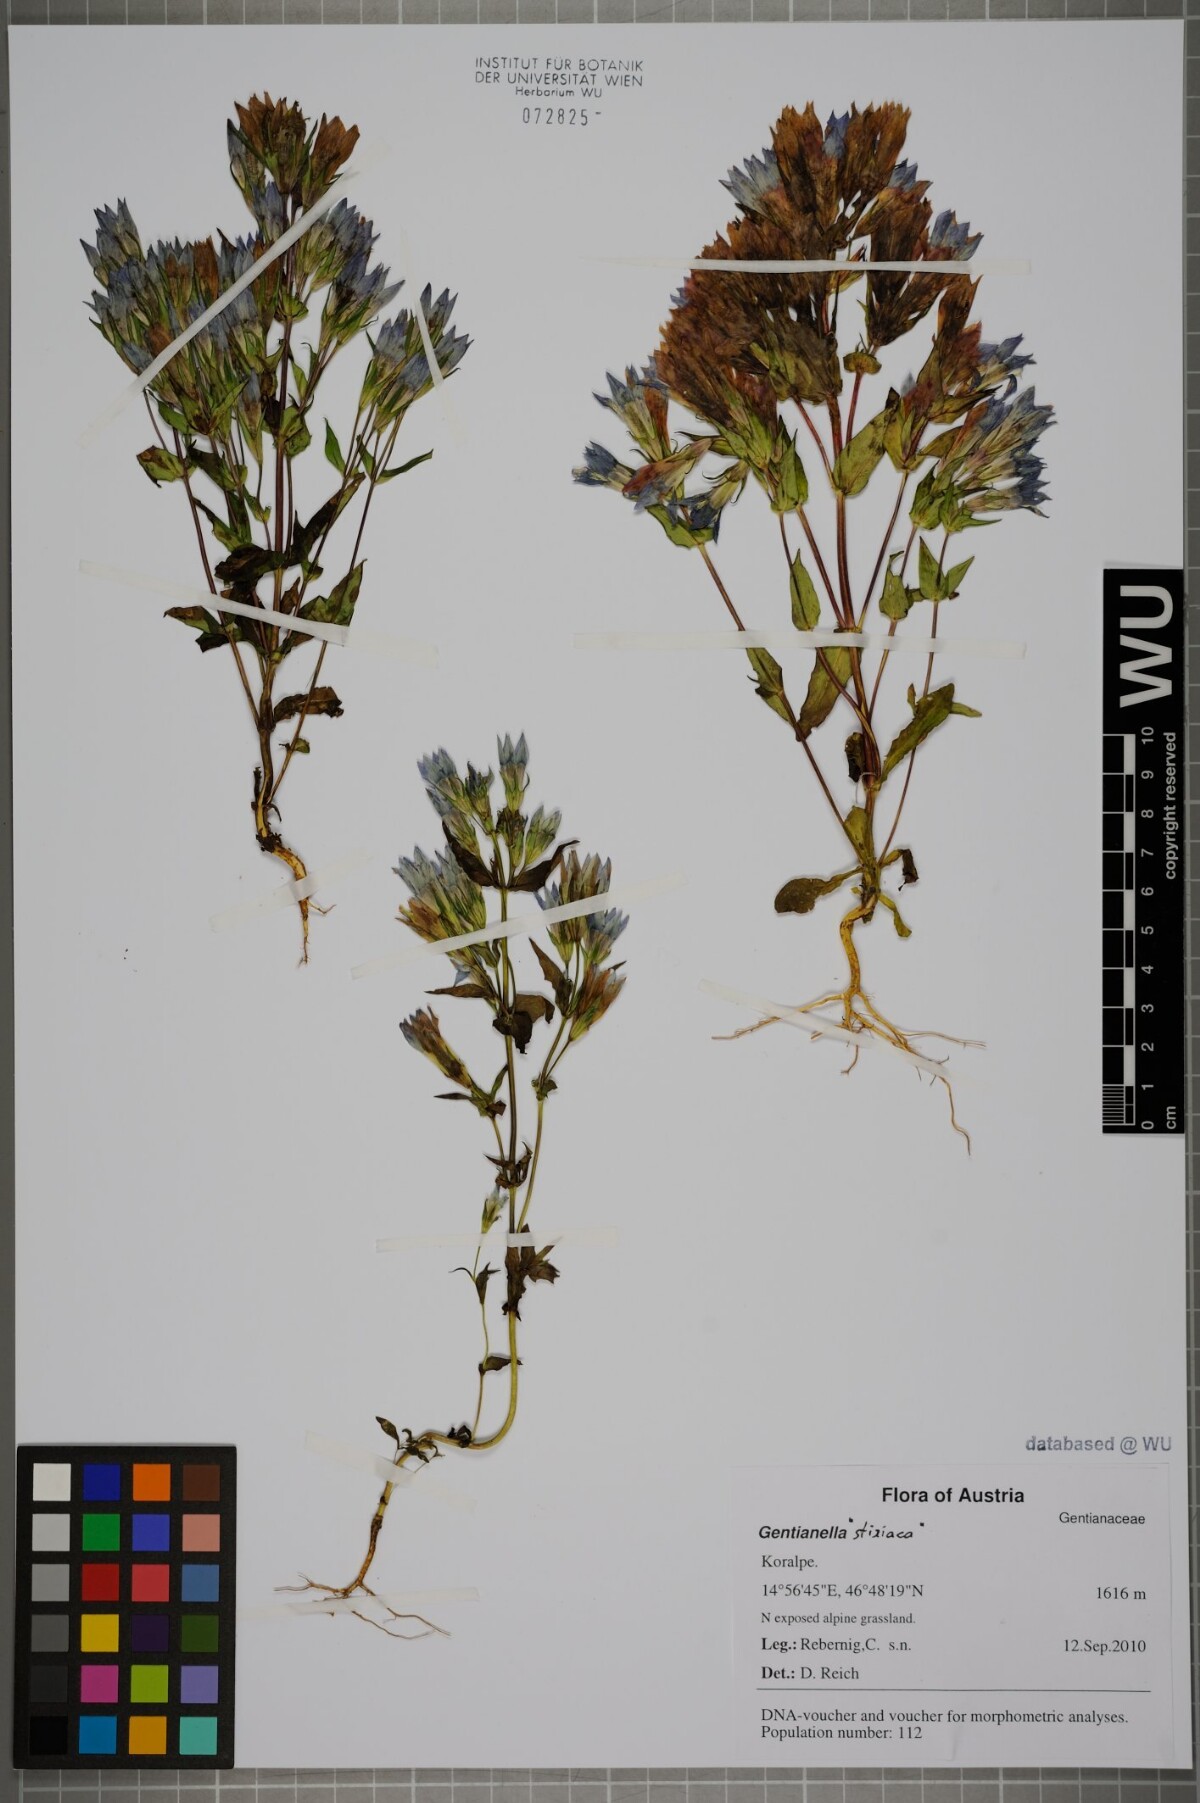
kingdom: Plantae
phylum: Tracheophyta
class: Magnoliopsida
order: Gentianales
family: Gentianaceae
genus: Gentianella
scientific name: Gentianella
